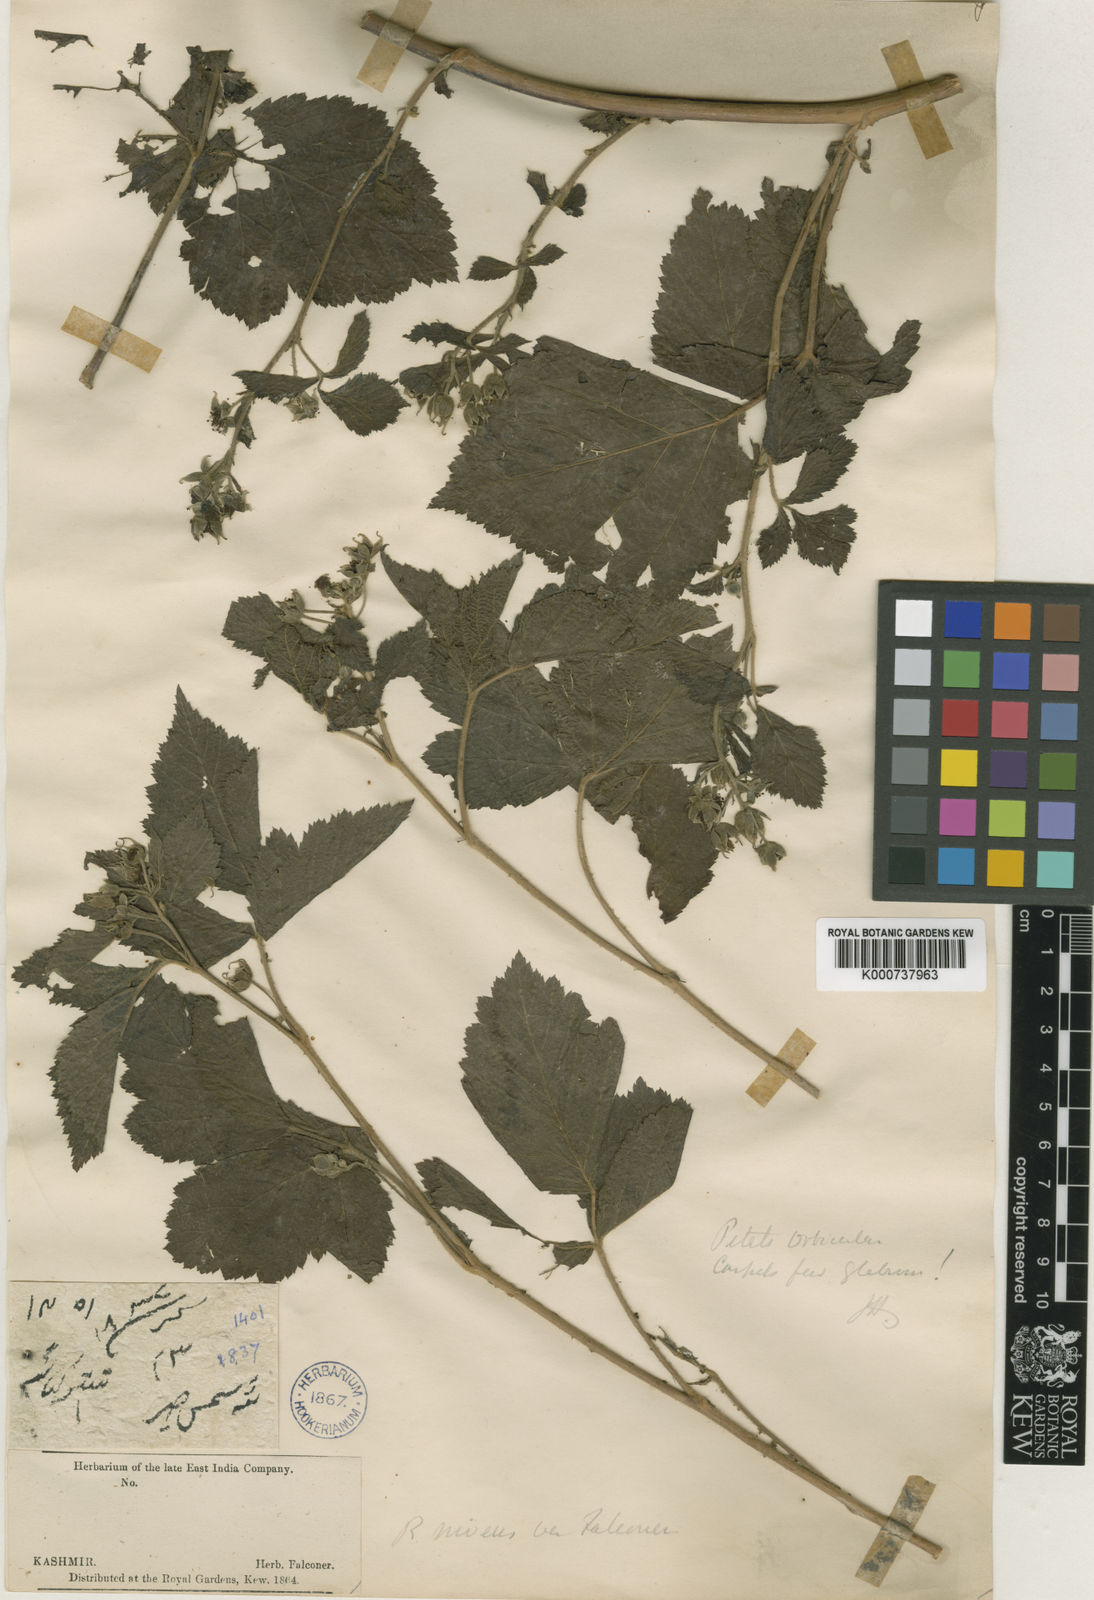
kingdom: Plantae
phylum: Tracheophyta
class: Magnoliopsida
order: Rosales
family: Rosaceae
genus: Rubus
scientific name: Rubus pedunculosus
